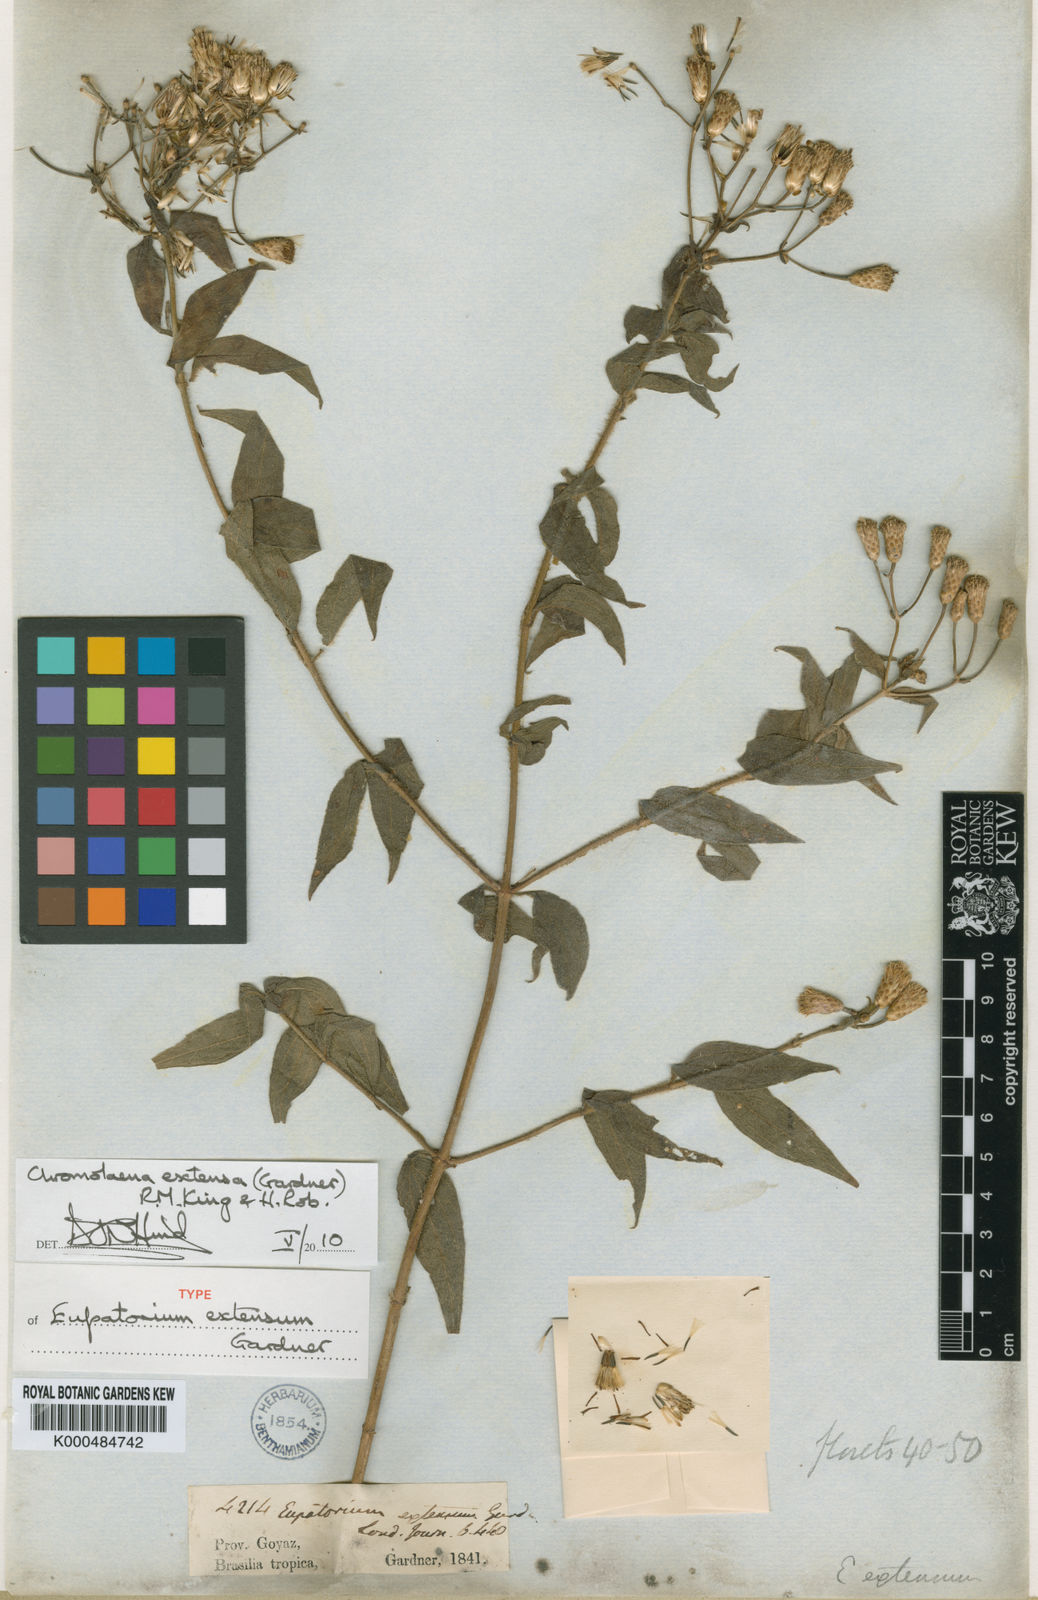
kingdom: Plantae
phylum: Tracheophyta
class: Magnoliopsida
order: Asterales
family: Asteraceae
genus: Chromolaena
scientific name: Chromolaena extensa
